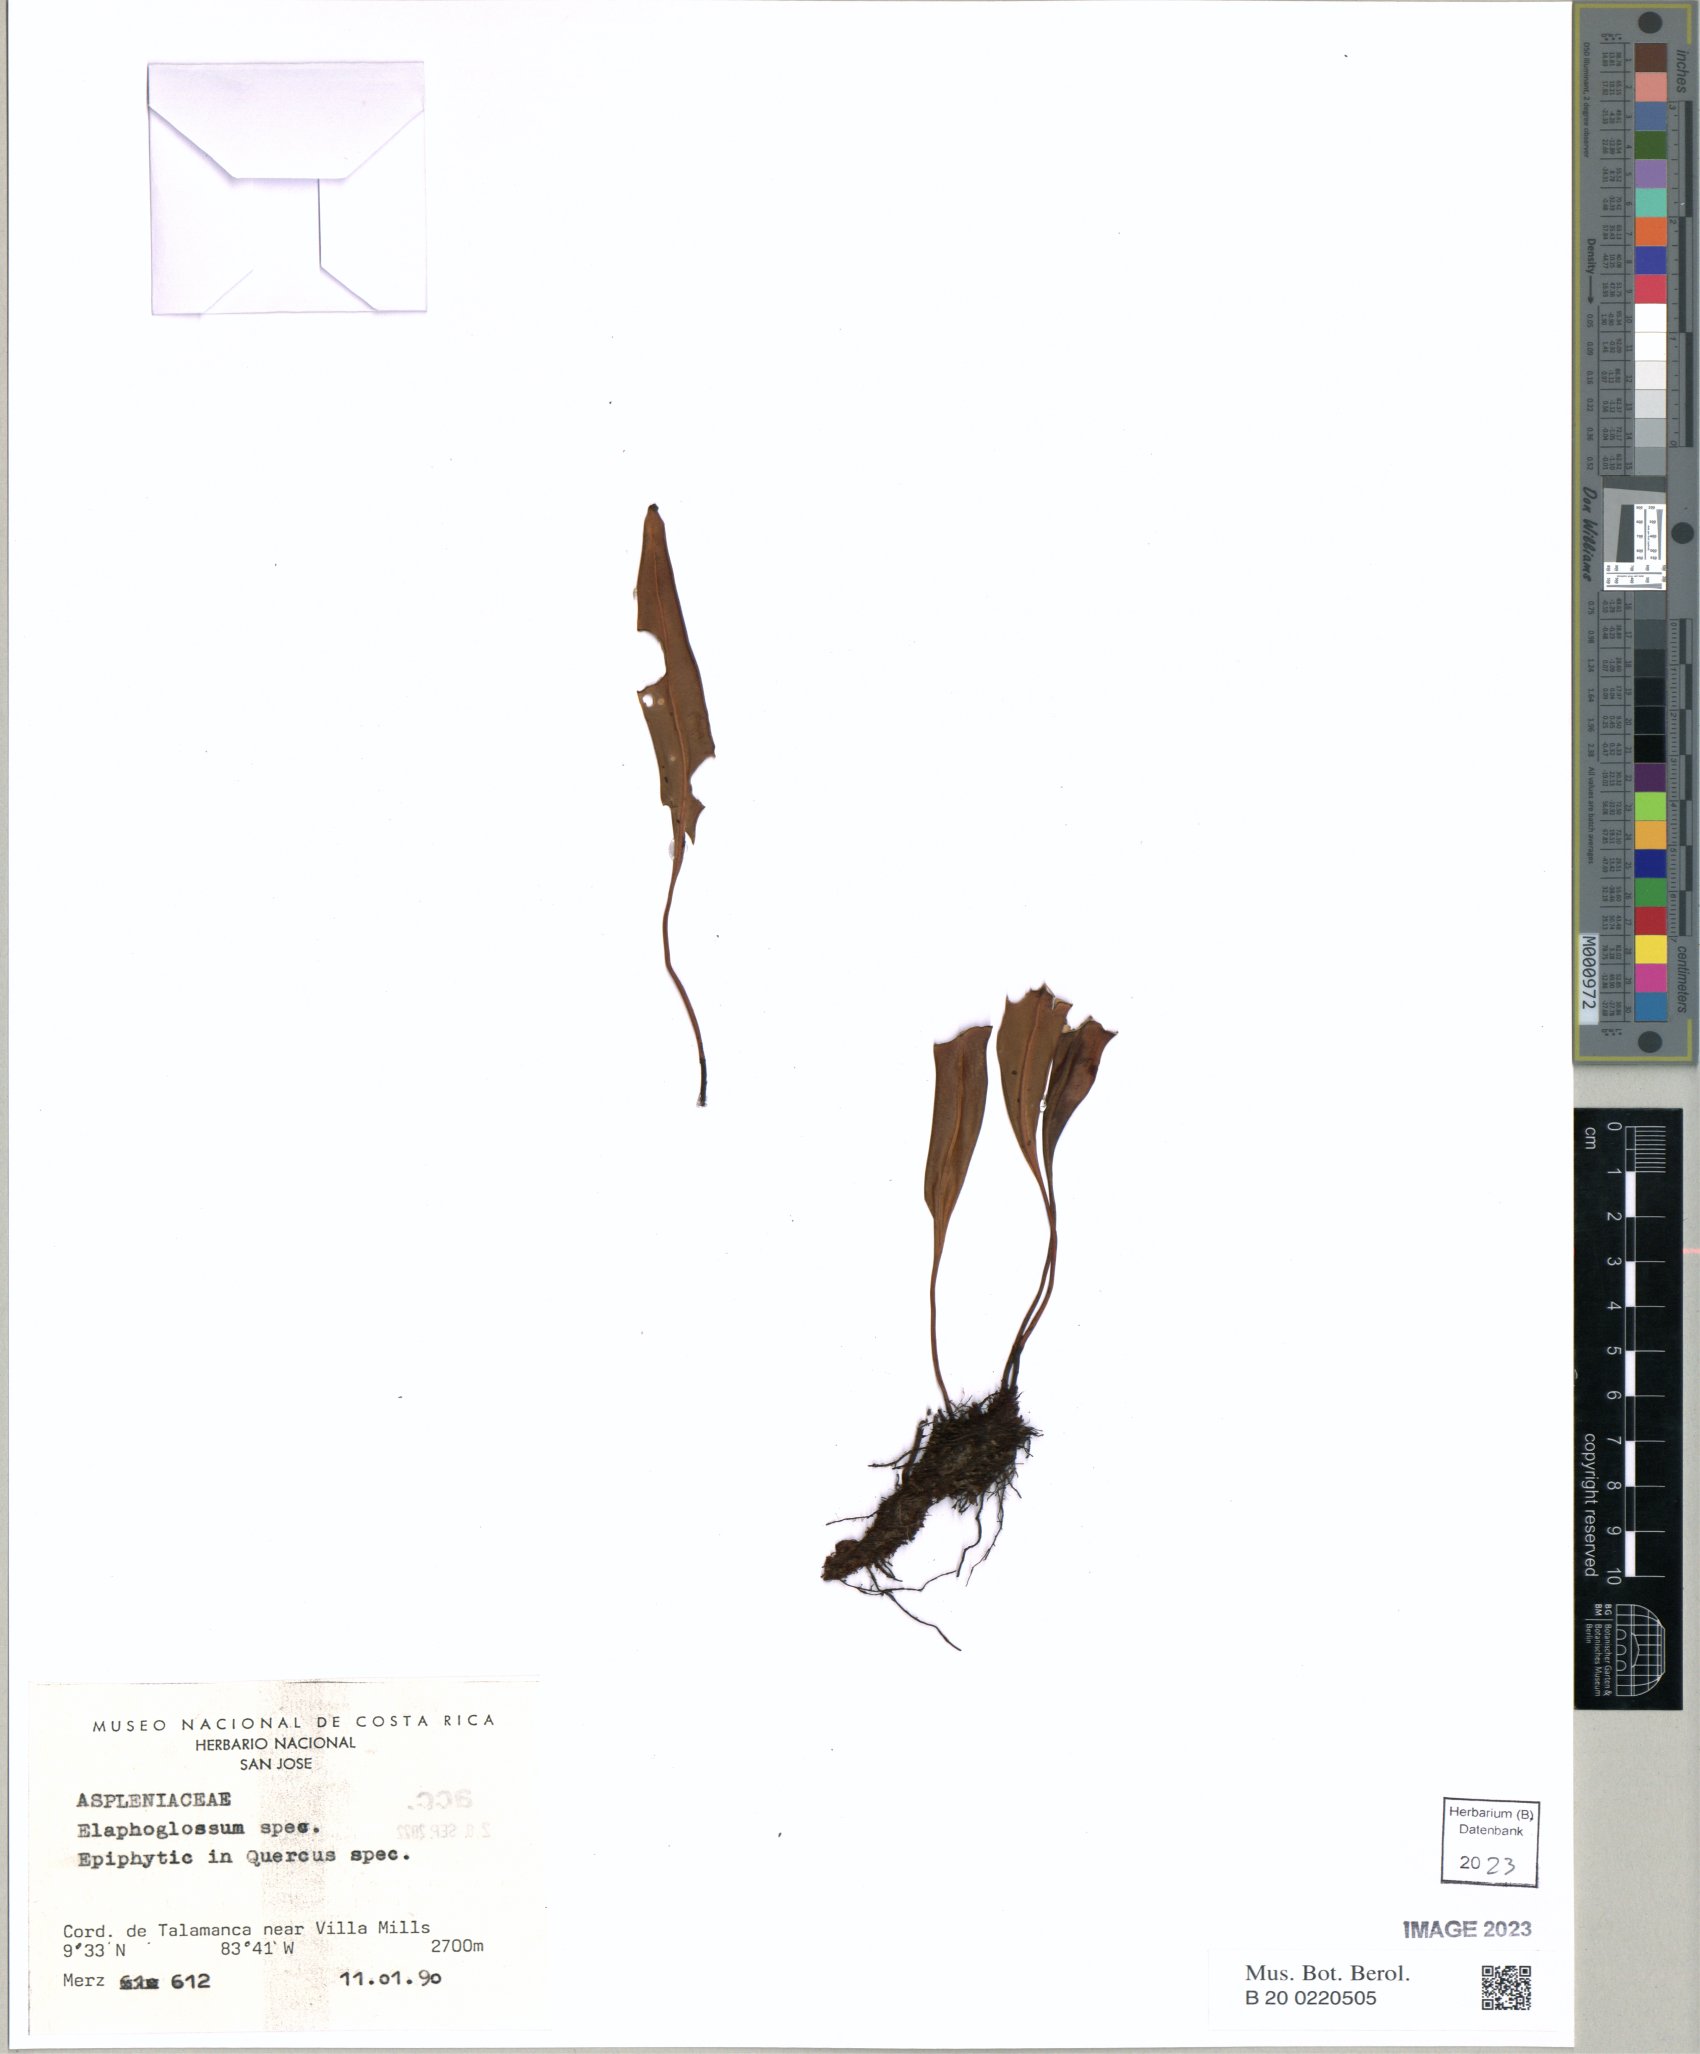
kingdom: Plantae
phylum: Tracheophyta
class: Polypodiopsida
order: Polypodiales
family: Dryopteridaceae
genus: Elaphoglossum
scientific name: Elaphoglossum
